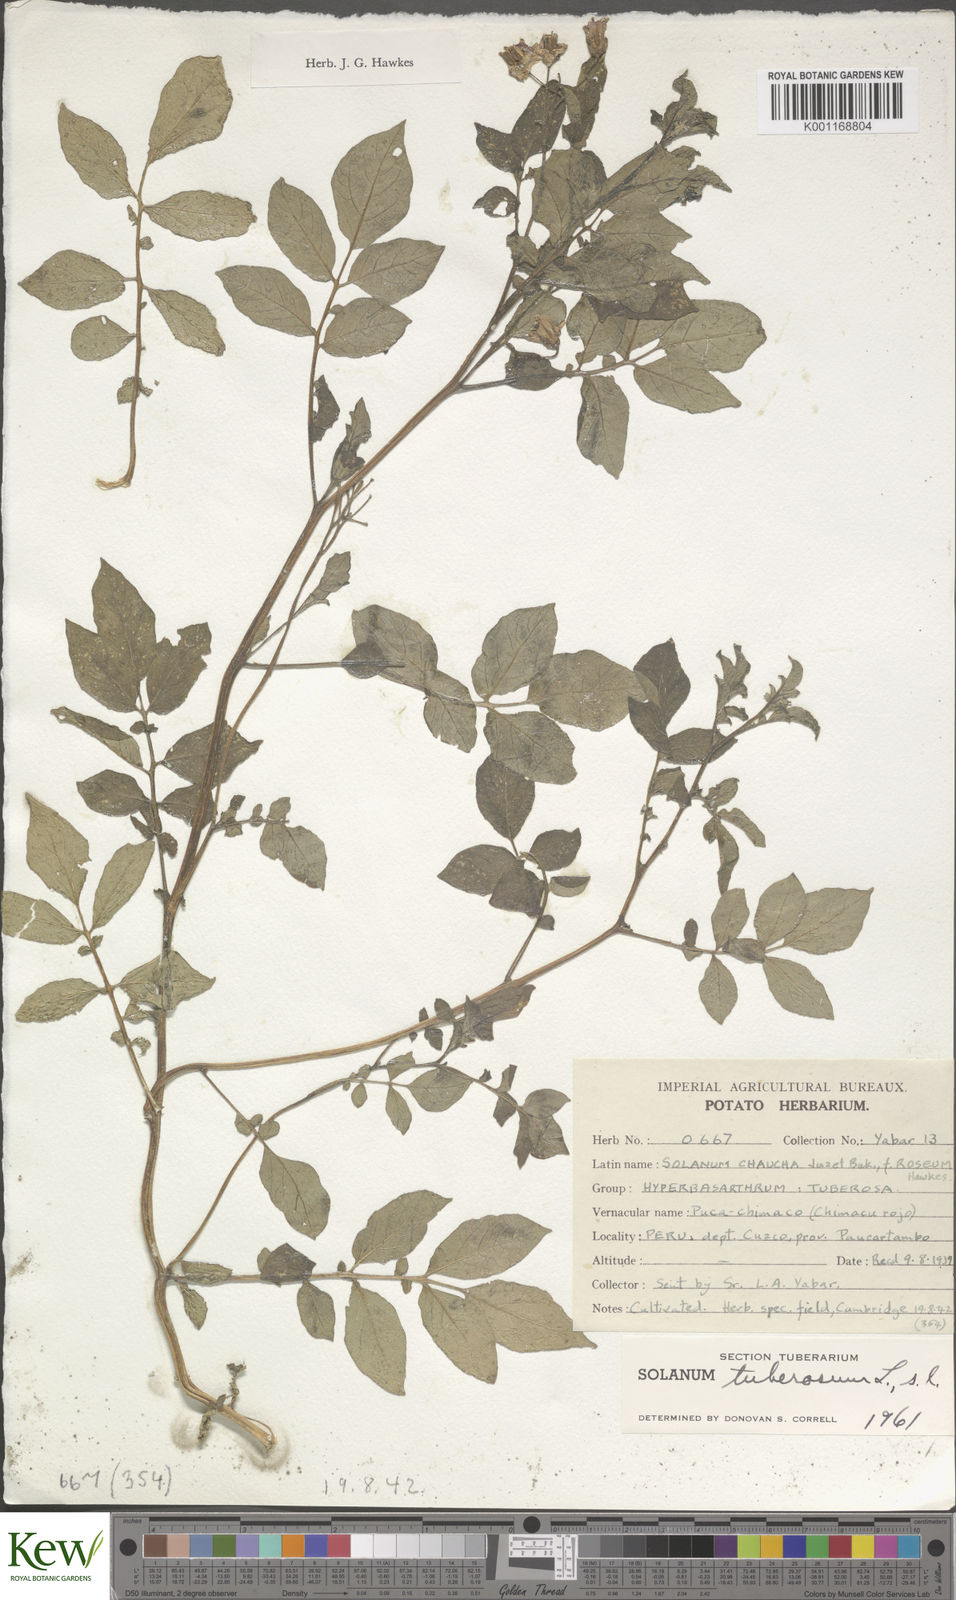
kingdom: Plantae
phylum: Tracheophyta
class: Magnoliopsida
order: Solanales
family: Solanaceae
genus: Solanum
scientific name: Solanum chaucha
